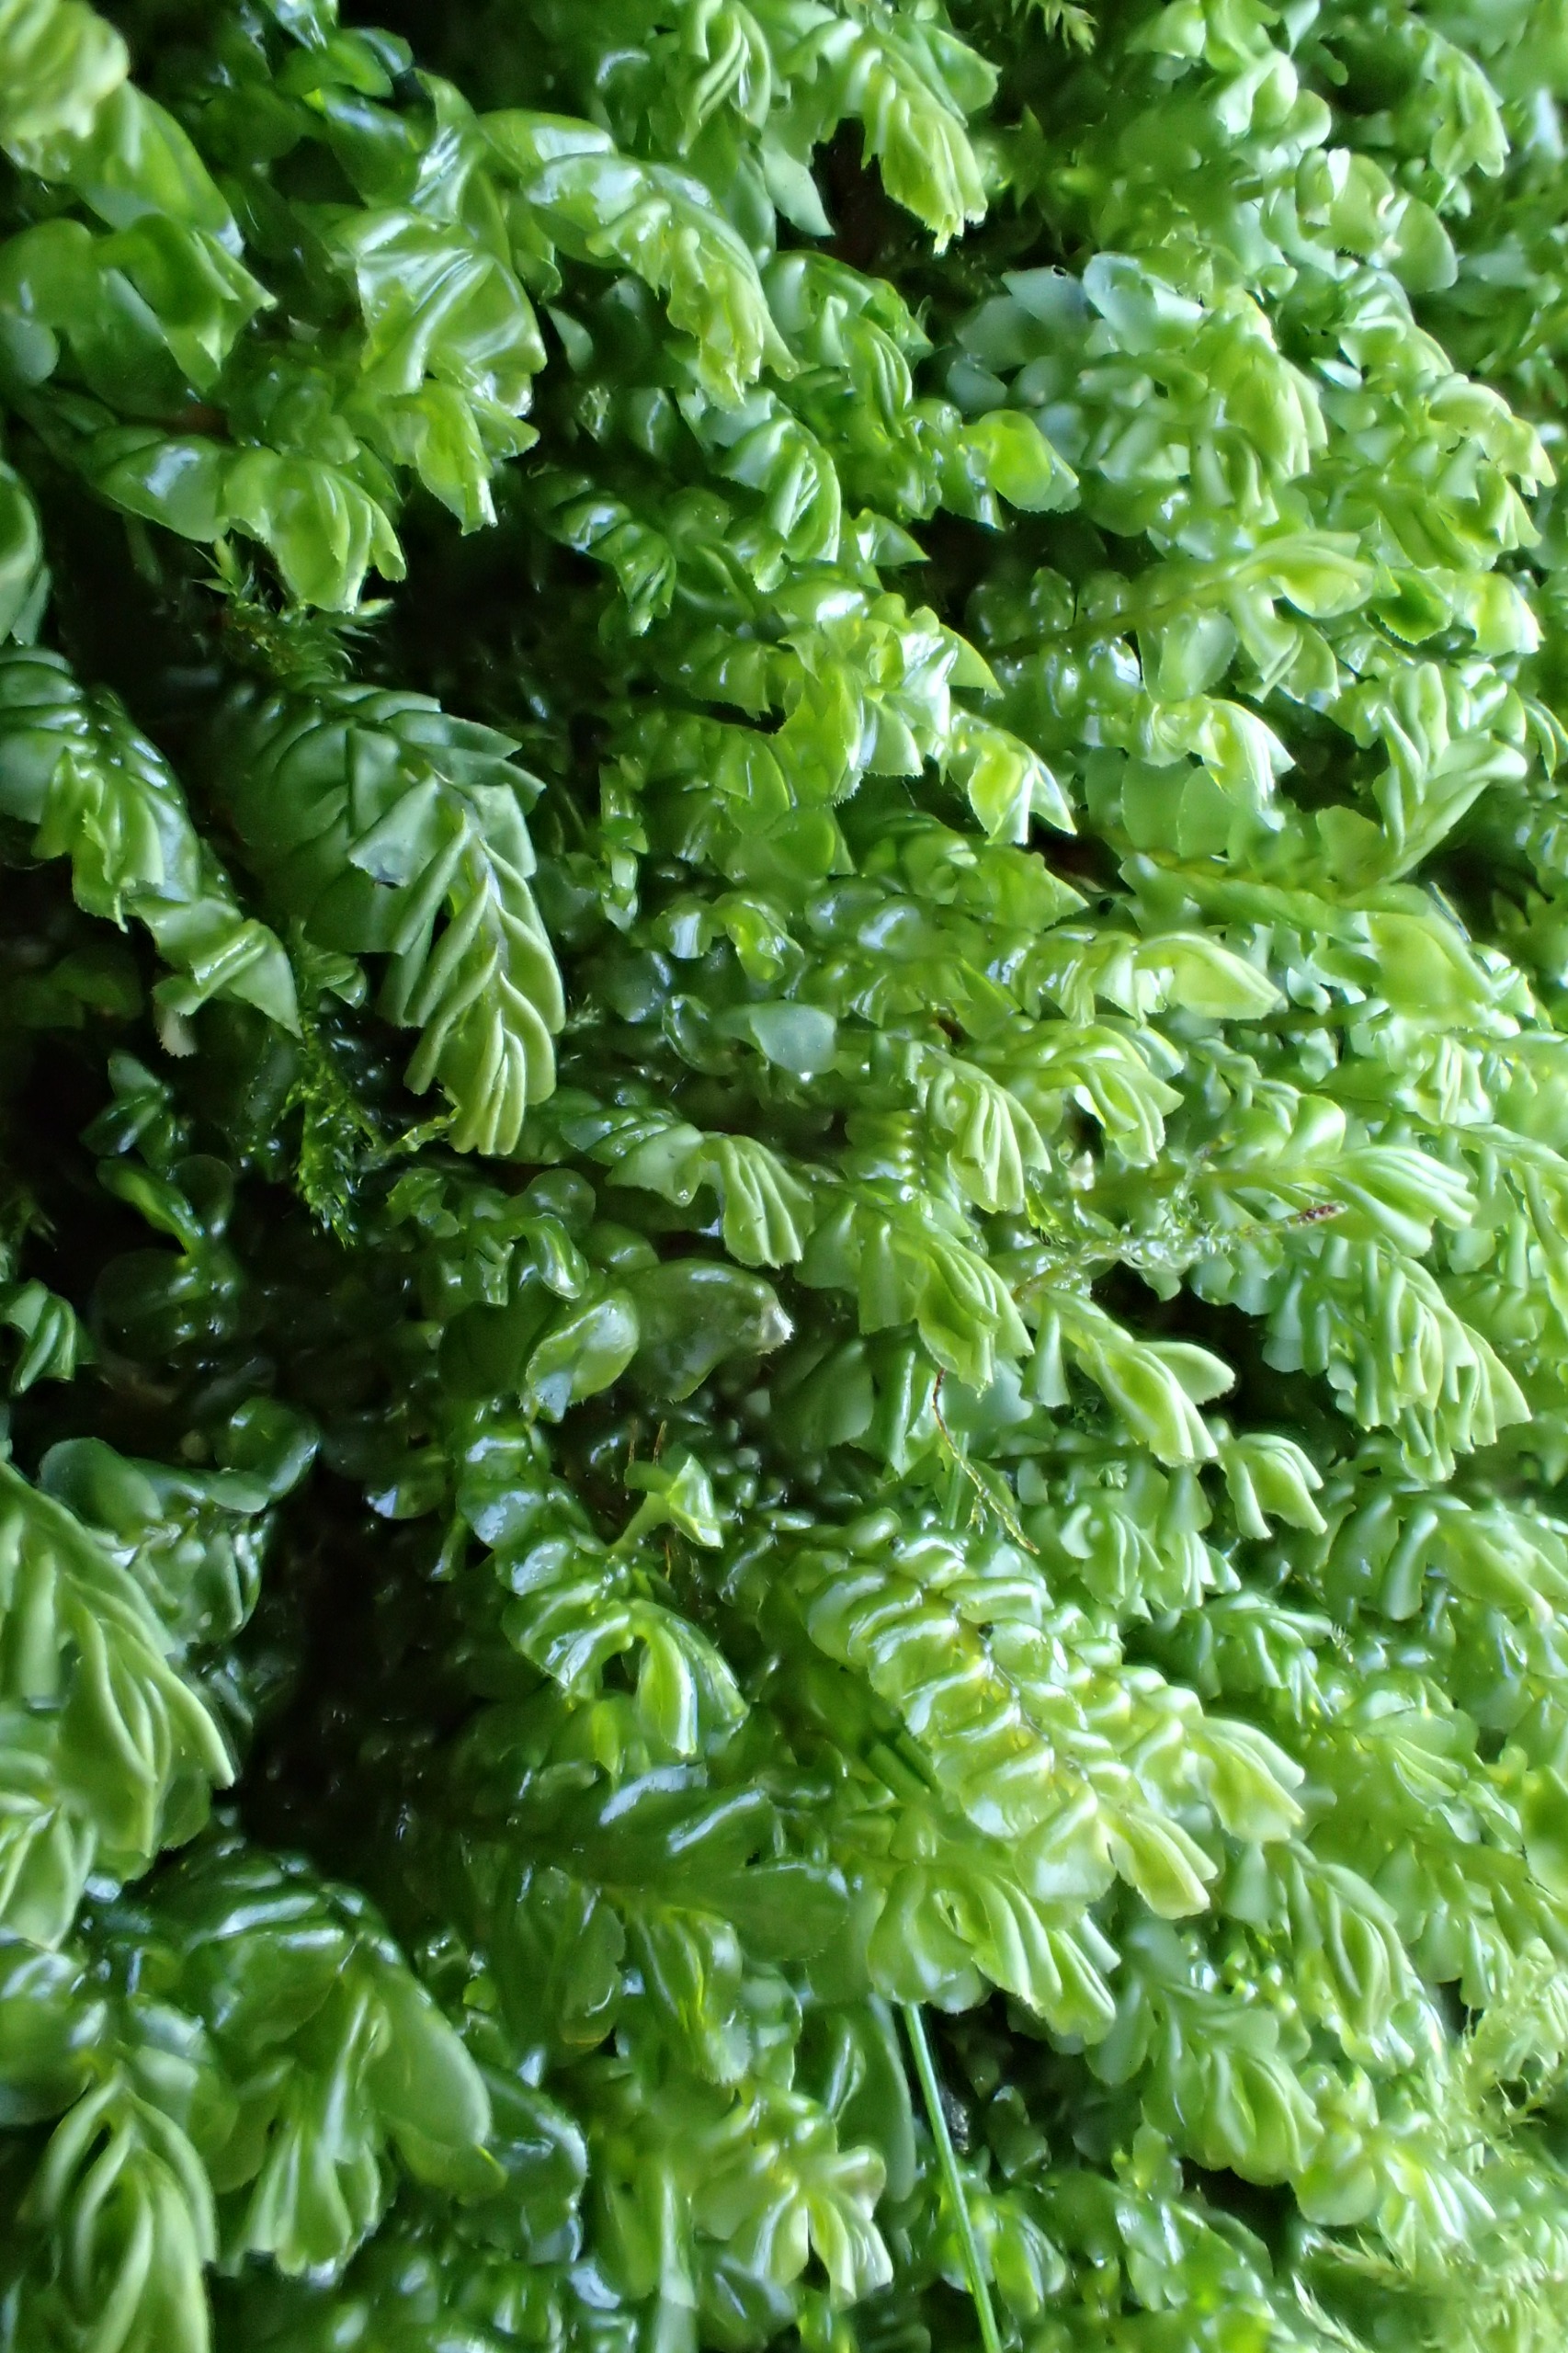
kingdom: Plantae
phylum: Marchantiophyta
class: Jungermanniopsida
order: Jungermanniales
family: Plagiochilaceae
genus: Plagiochila
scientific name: Plagiochila asplenioides
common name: Radeløv-hindeblad
